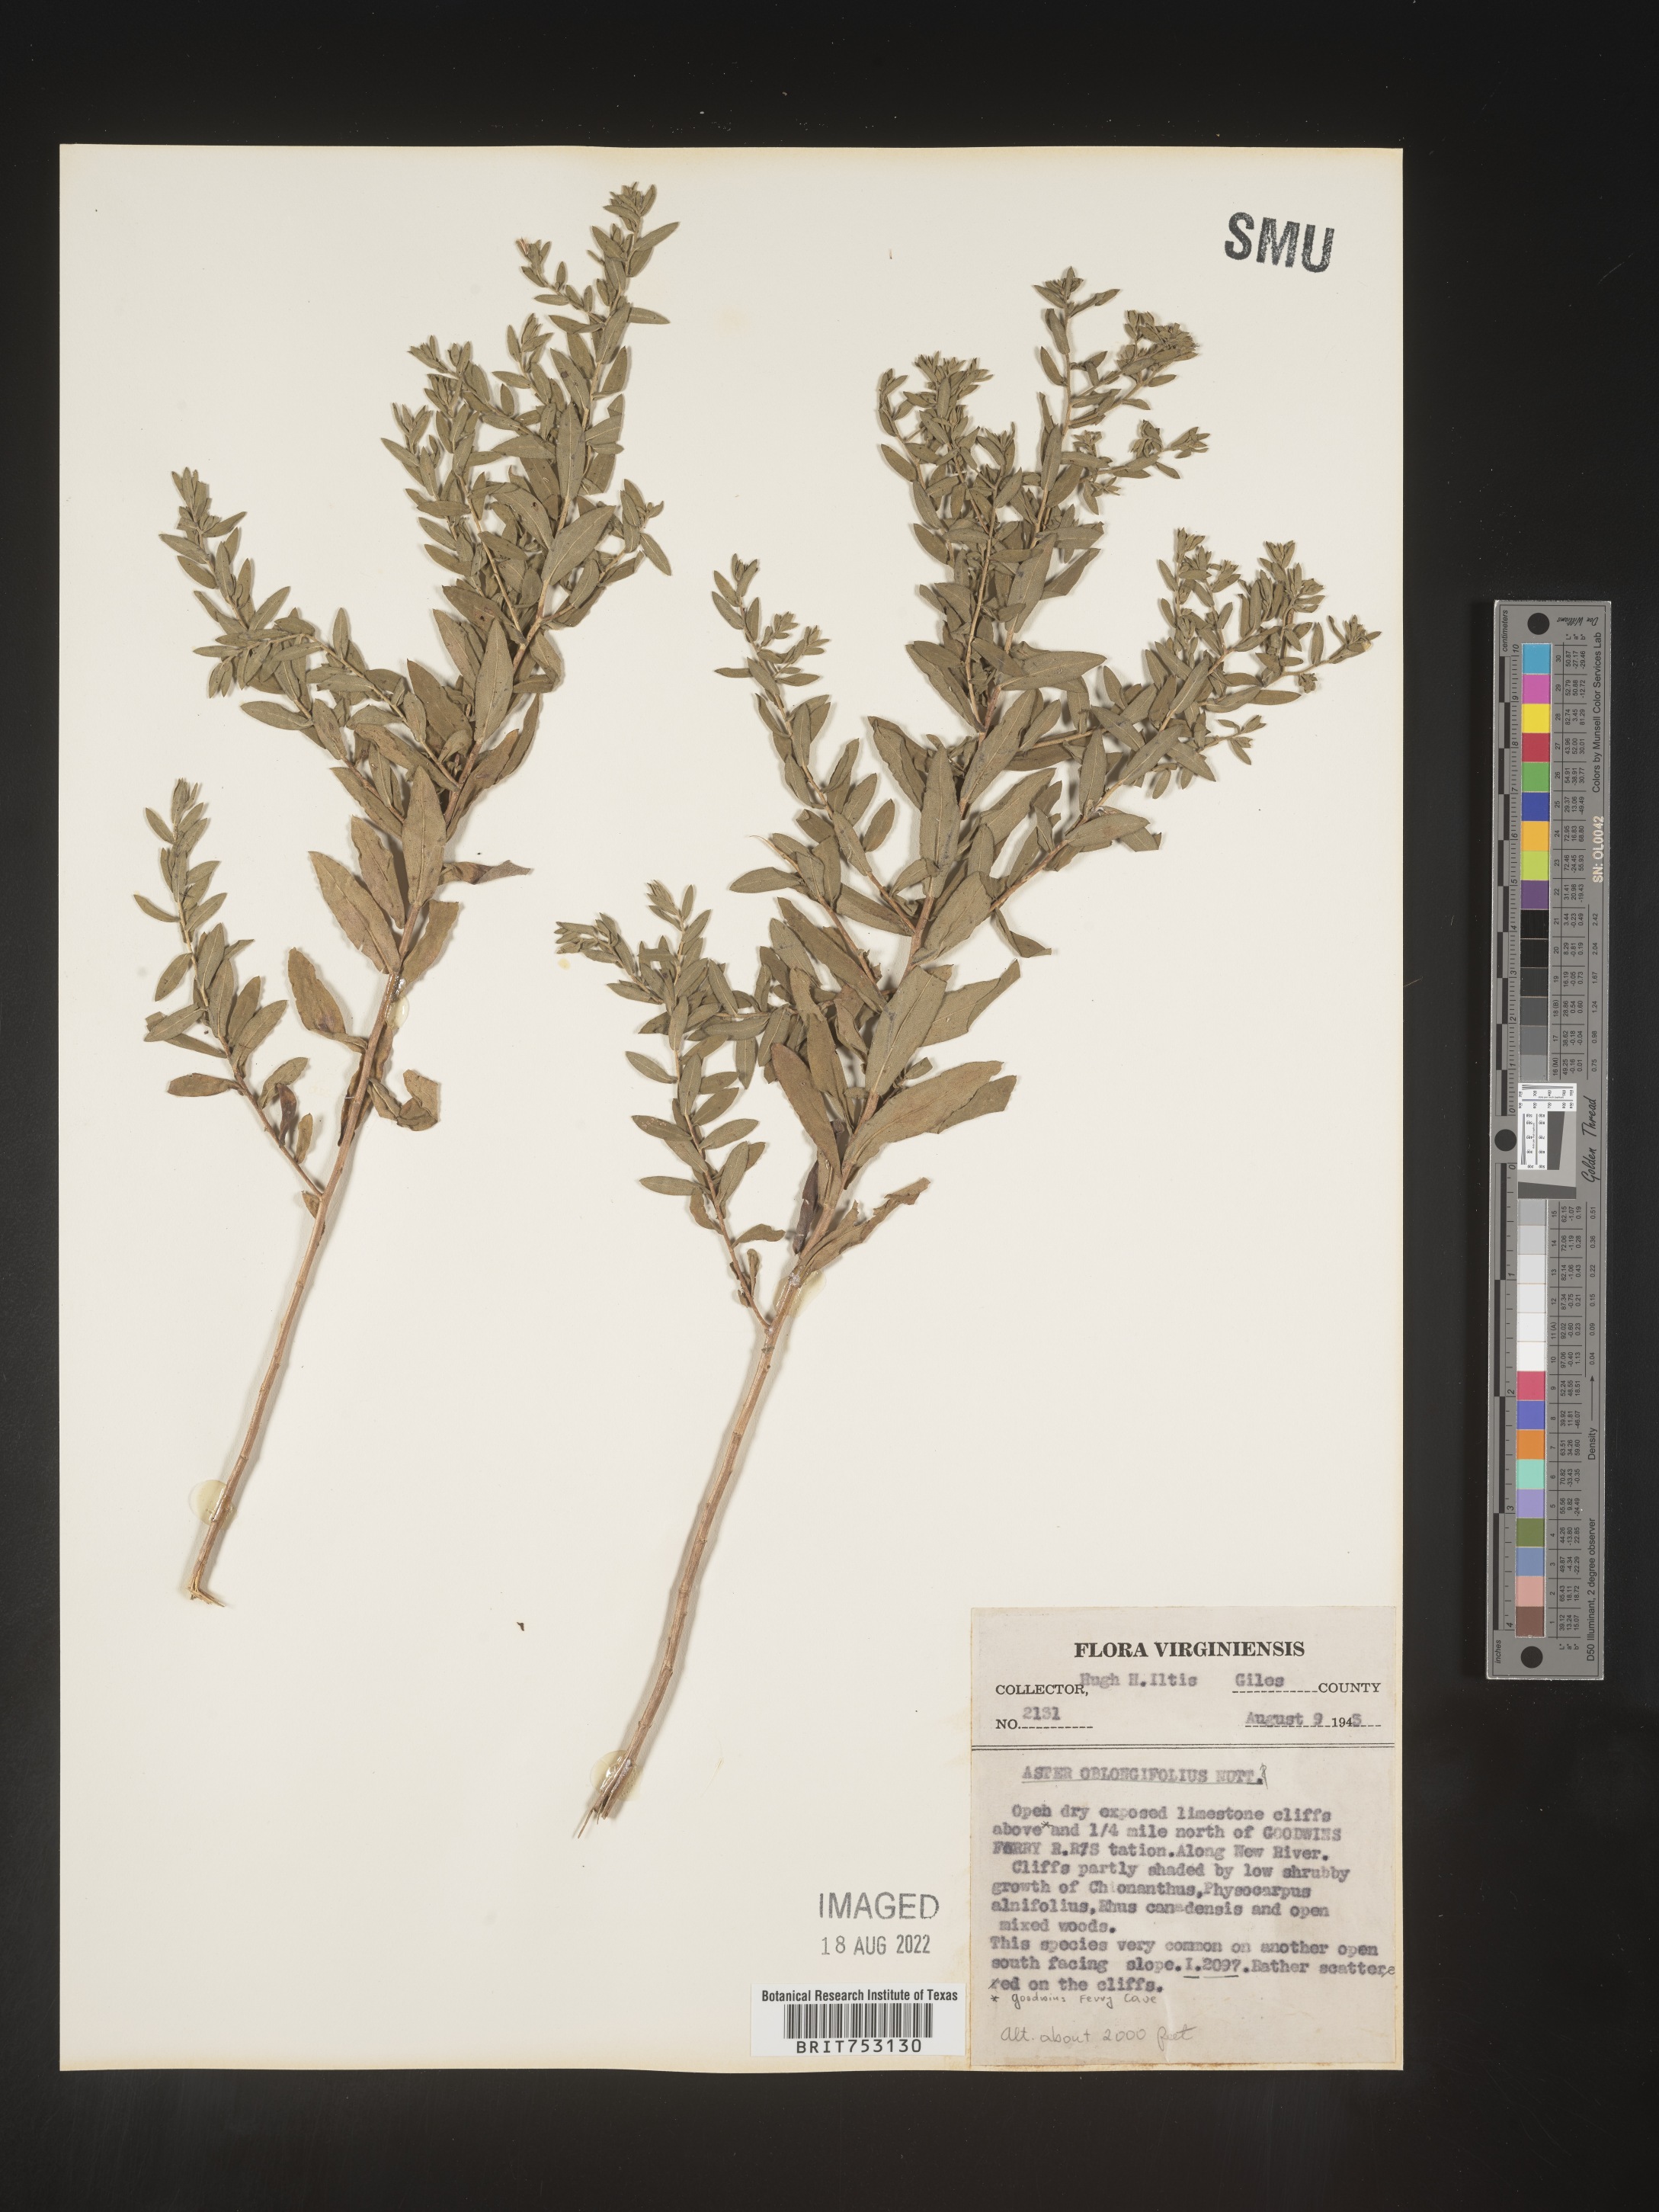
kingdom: Plantae
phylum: Tracheophyta
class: Magnoliopsida
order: Asterales
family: Asteraceae
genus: Symphyotrichum
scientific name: Symphyotrichum oblongifolium
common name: Aromatic aster
